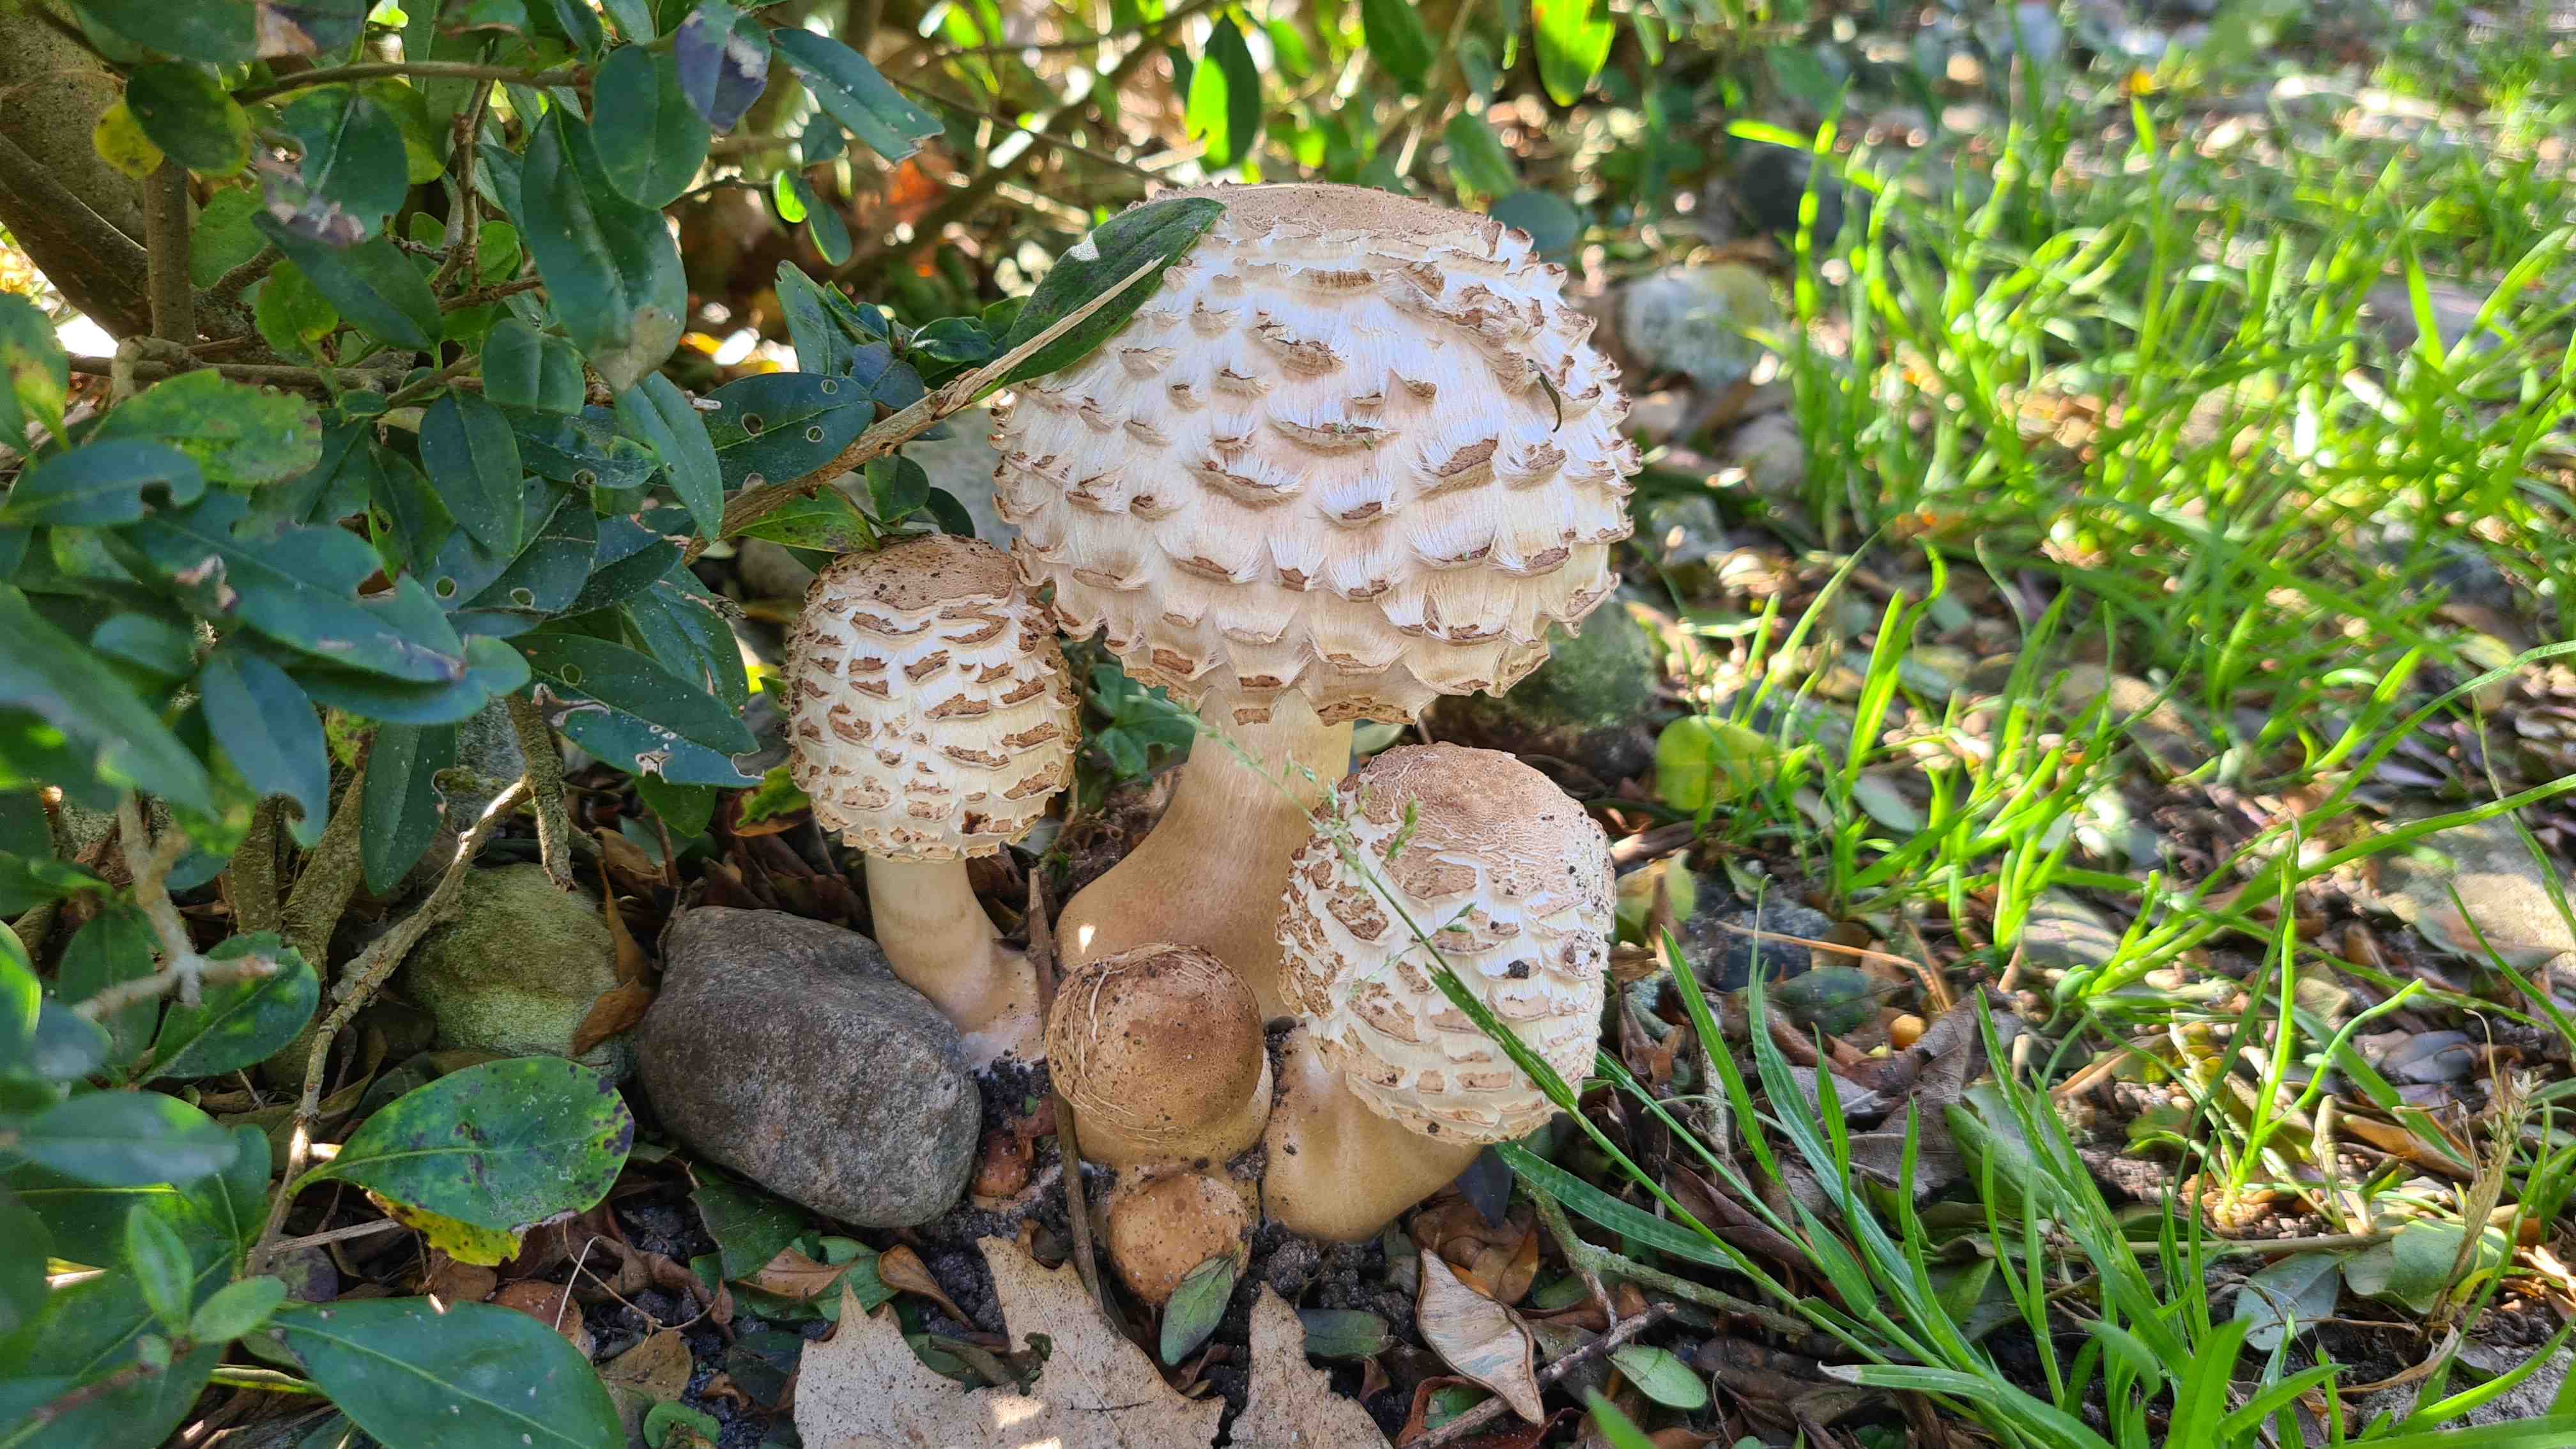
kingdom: Fungi
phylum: Basidiomycota
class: Agaricomycetes
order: Agaricales
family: Agaricaceae
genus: Chlorophyllum
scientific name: Chlorophyllum
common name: rabarberhat
